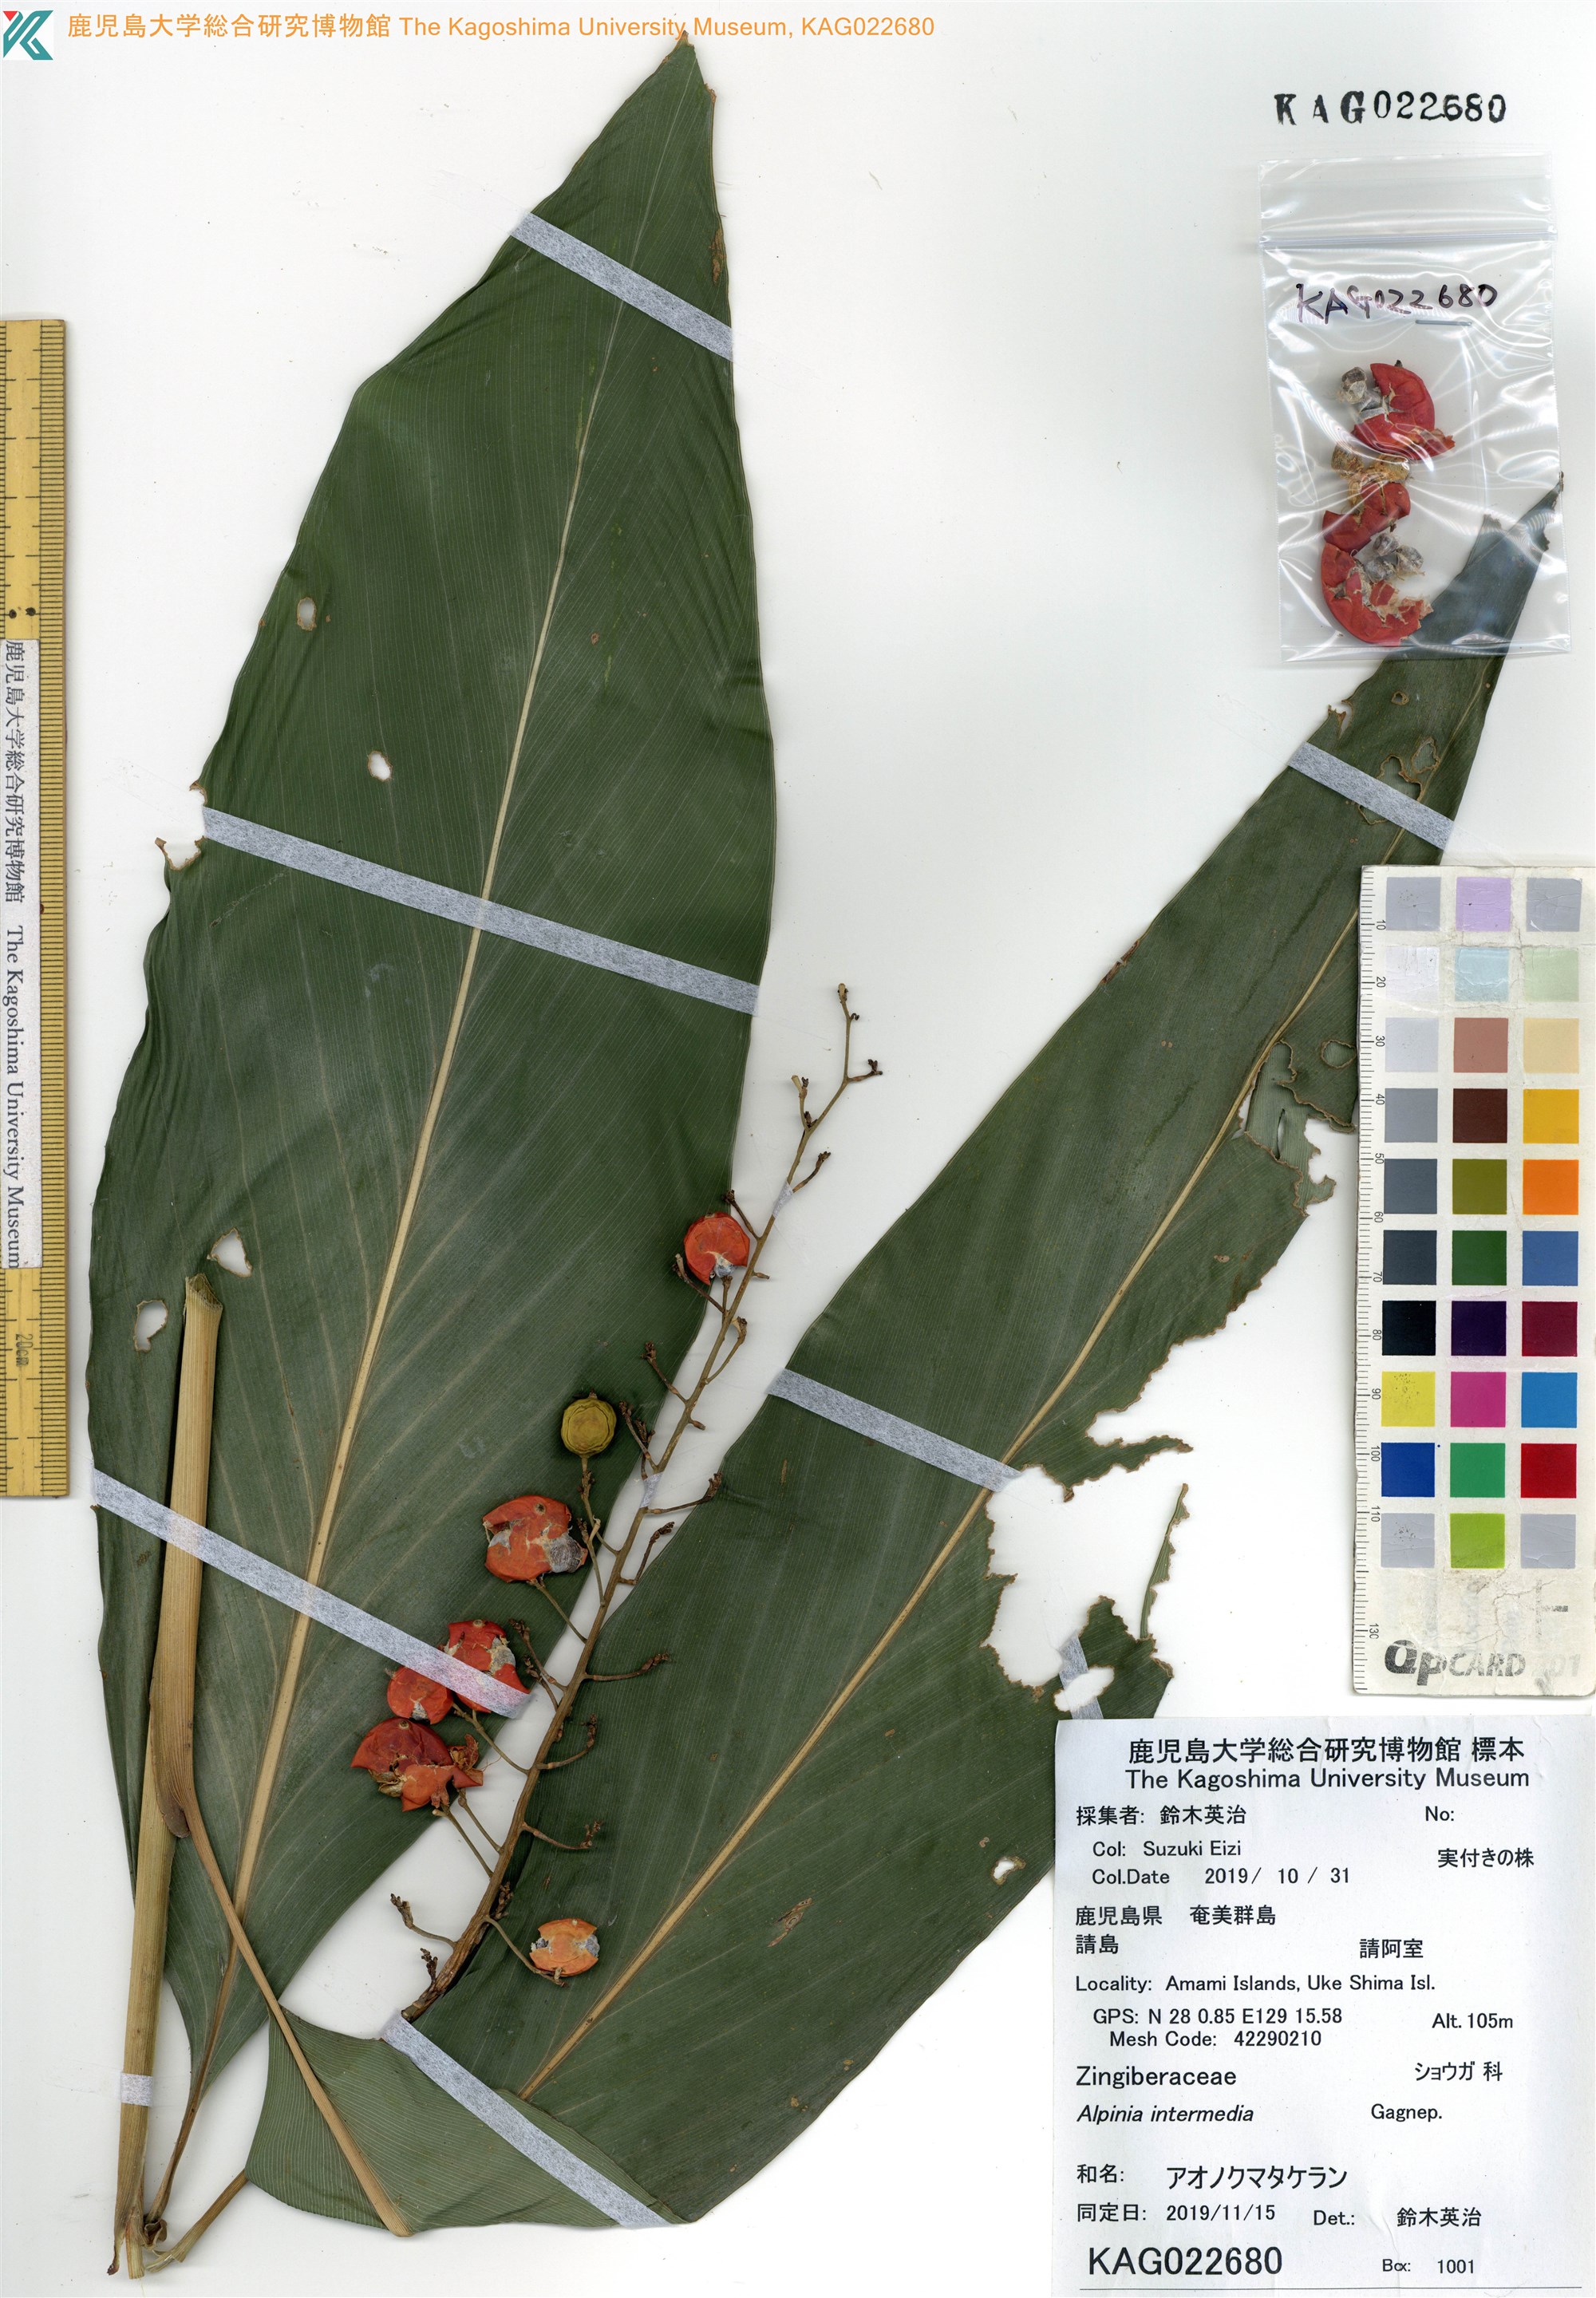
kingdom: Plantae
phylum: Tracheophyta
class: Liliopsida
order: Zingiberales
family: Zingiberaceae
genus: Alpinia
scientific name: Alpinia intermedia
